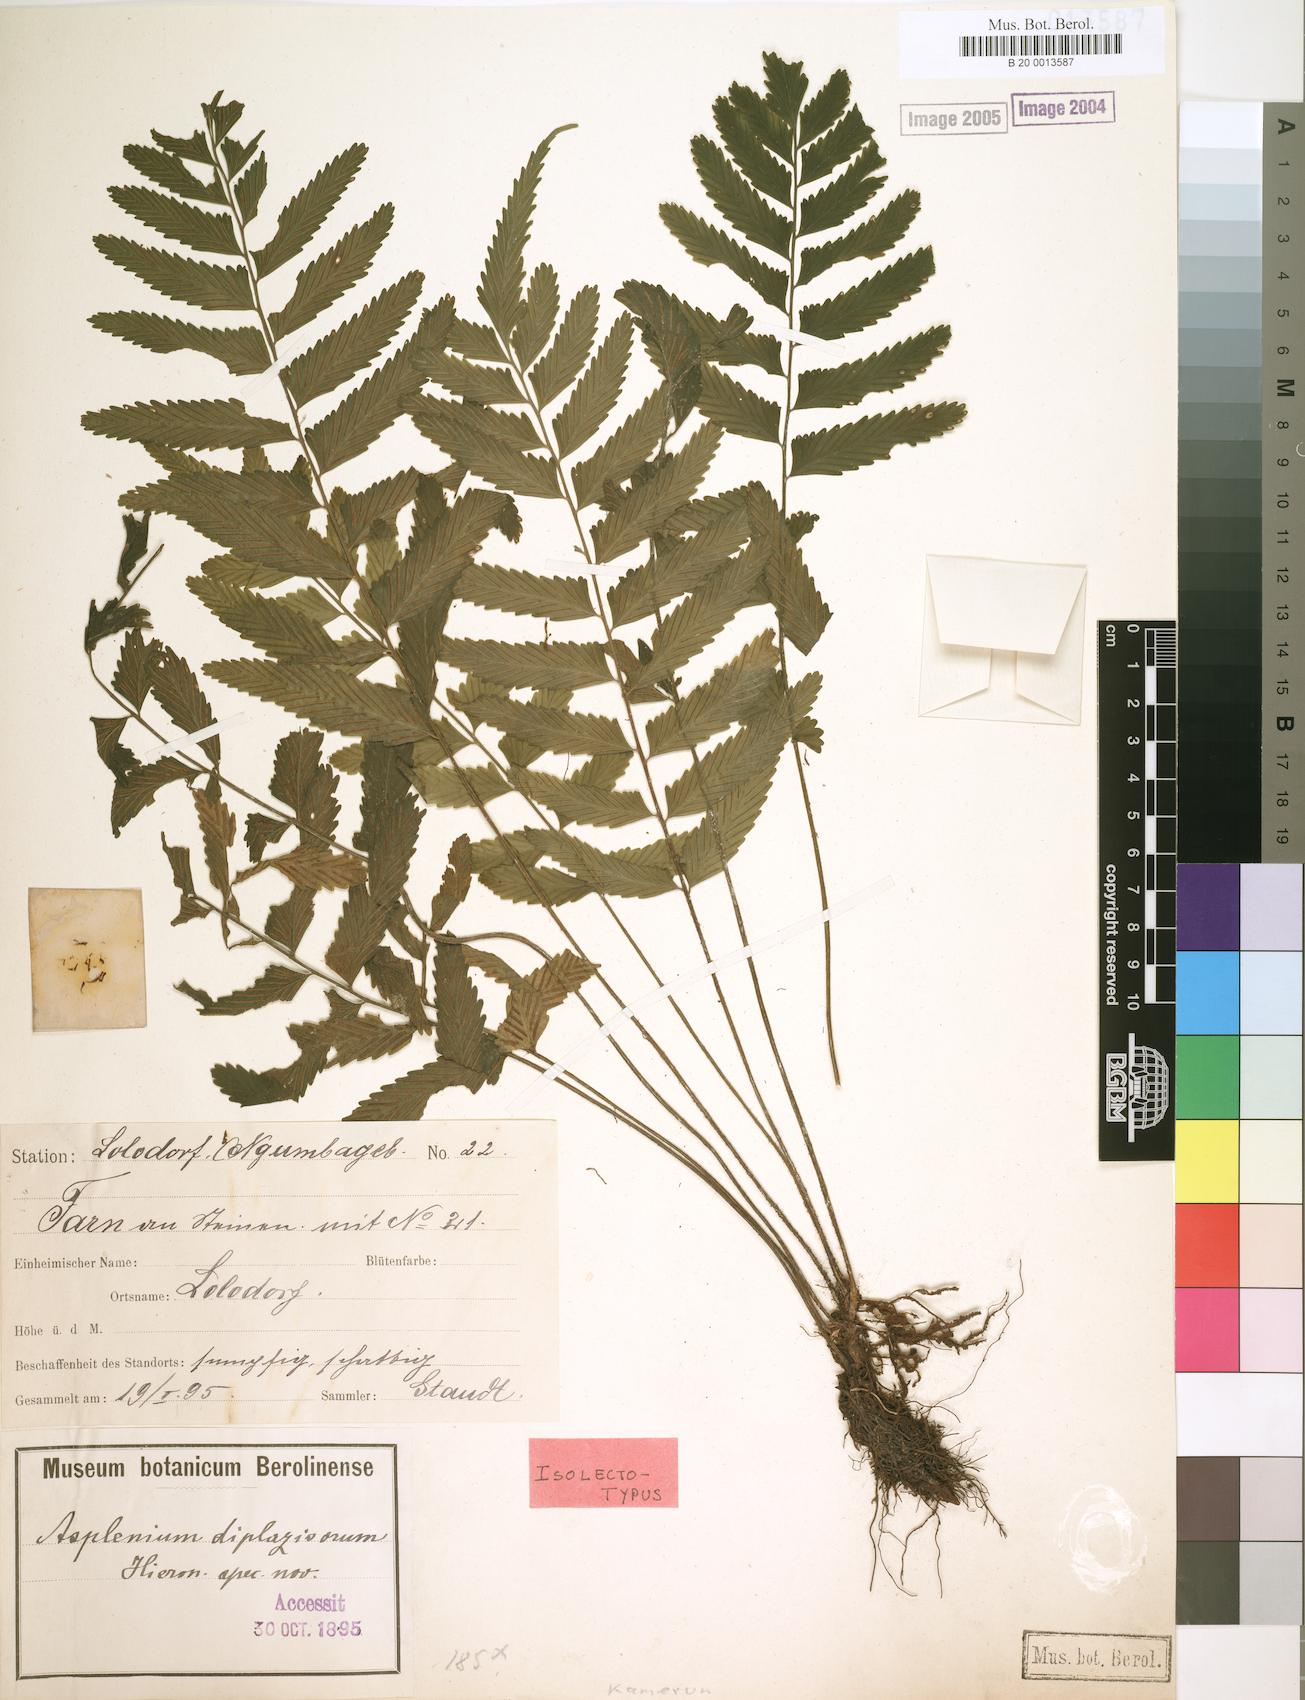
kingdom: Plantae
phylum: Tracheophyta
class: Polypodiopsida
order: Polypodiales
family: Aspleniaceae
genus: Asplenium
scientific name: Asplenium diplazisorum
